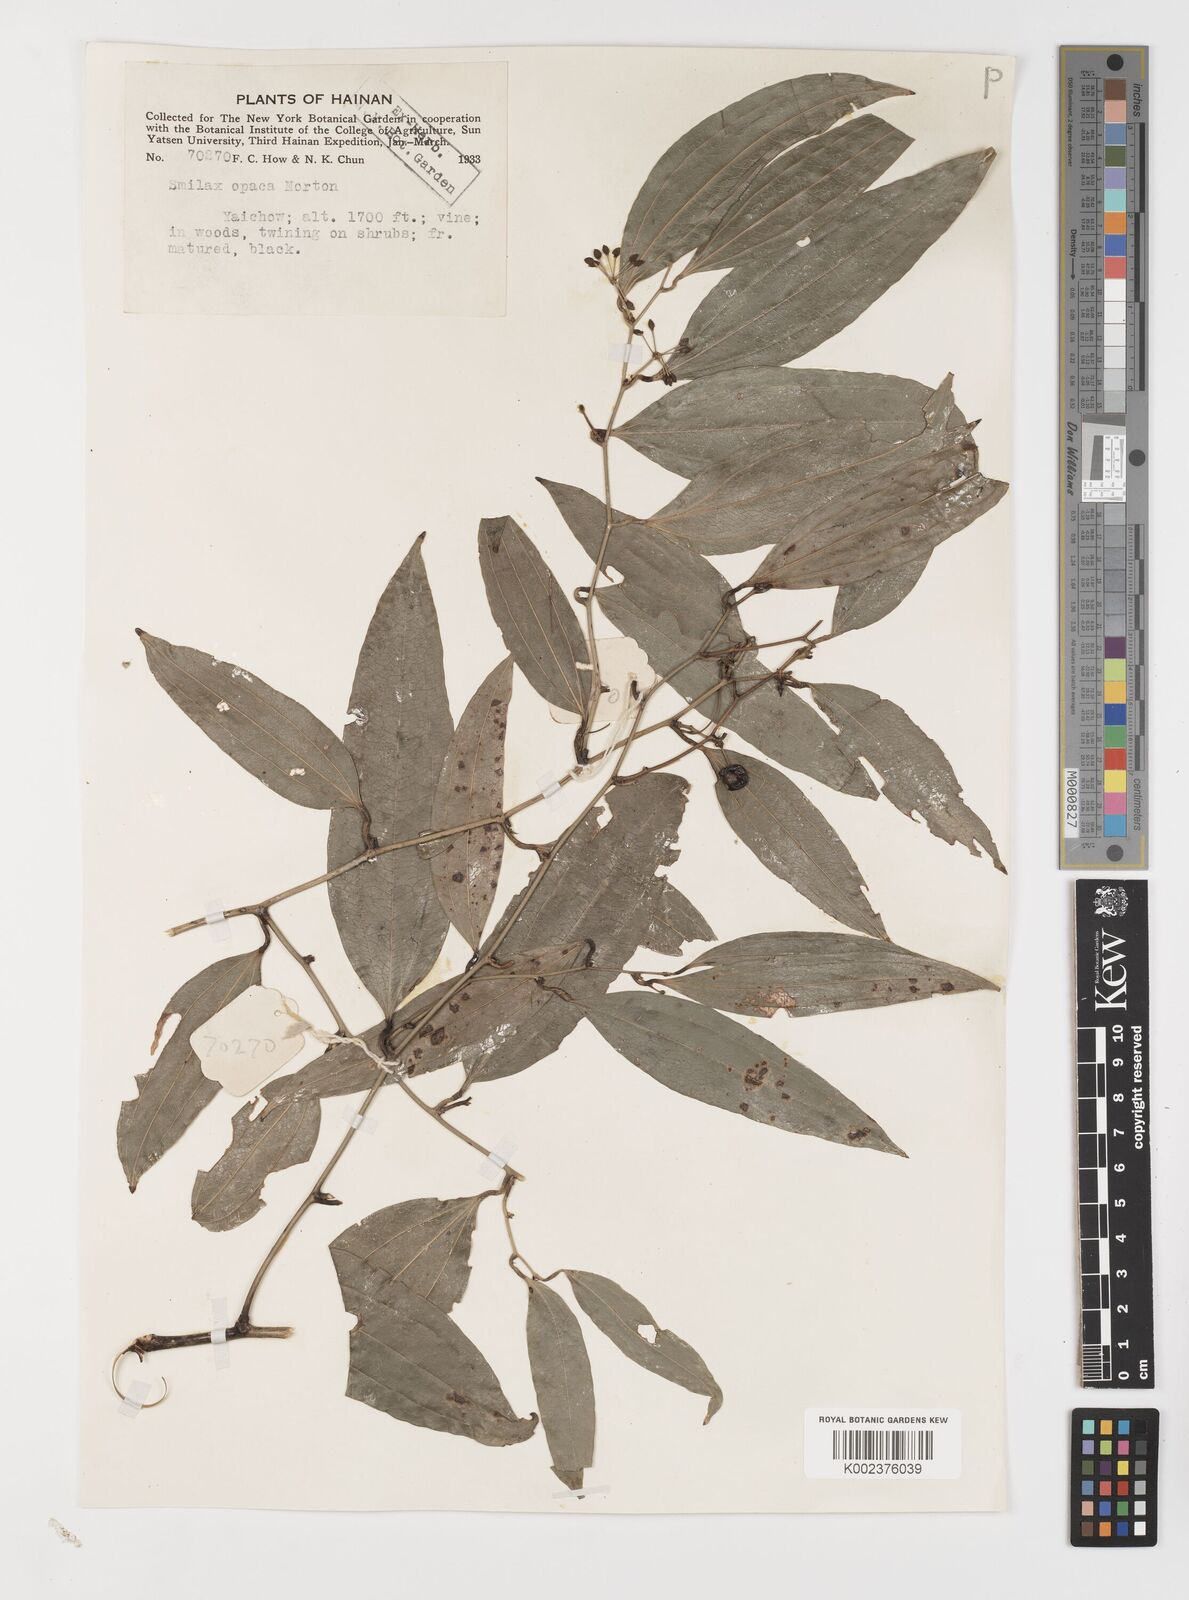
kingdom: Plantae
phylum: Tracheophyta
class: Liliopsida
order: Liliales
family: Smilacaceae
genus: Smilax
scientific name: Smilax laevis
